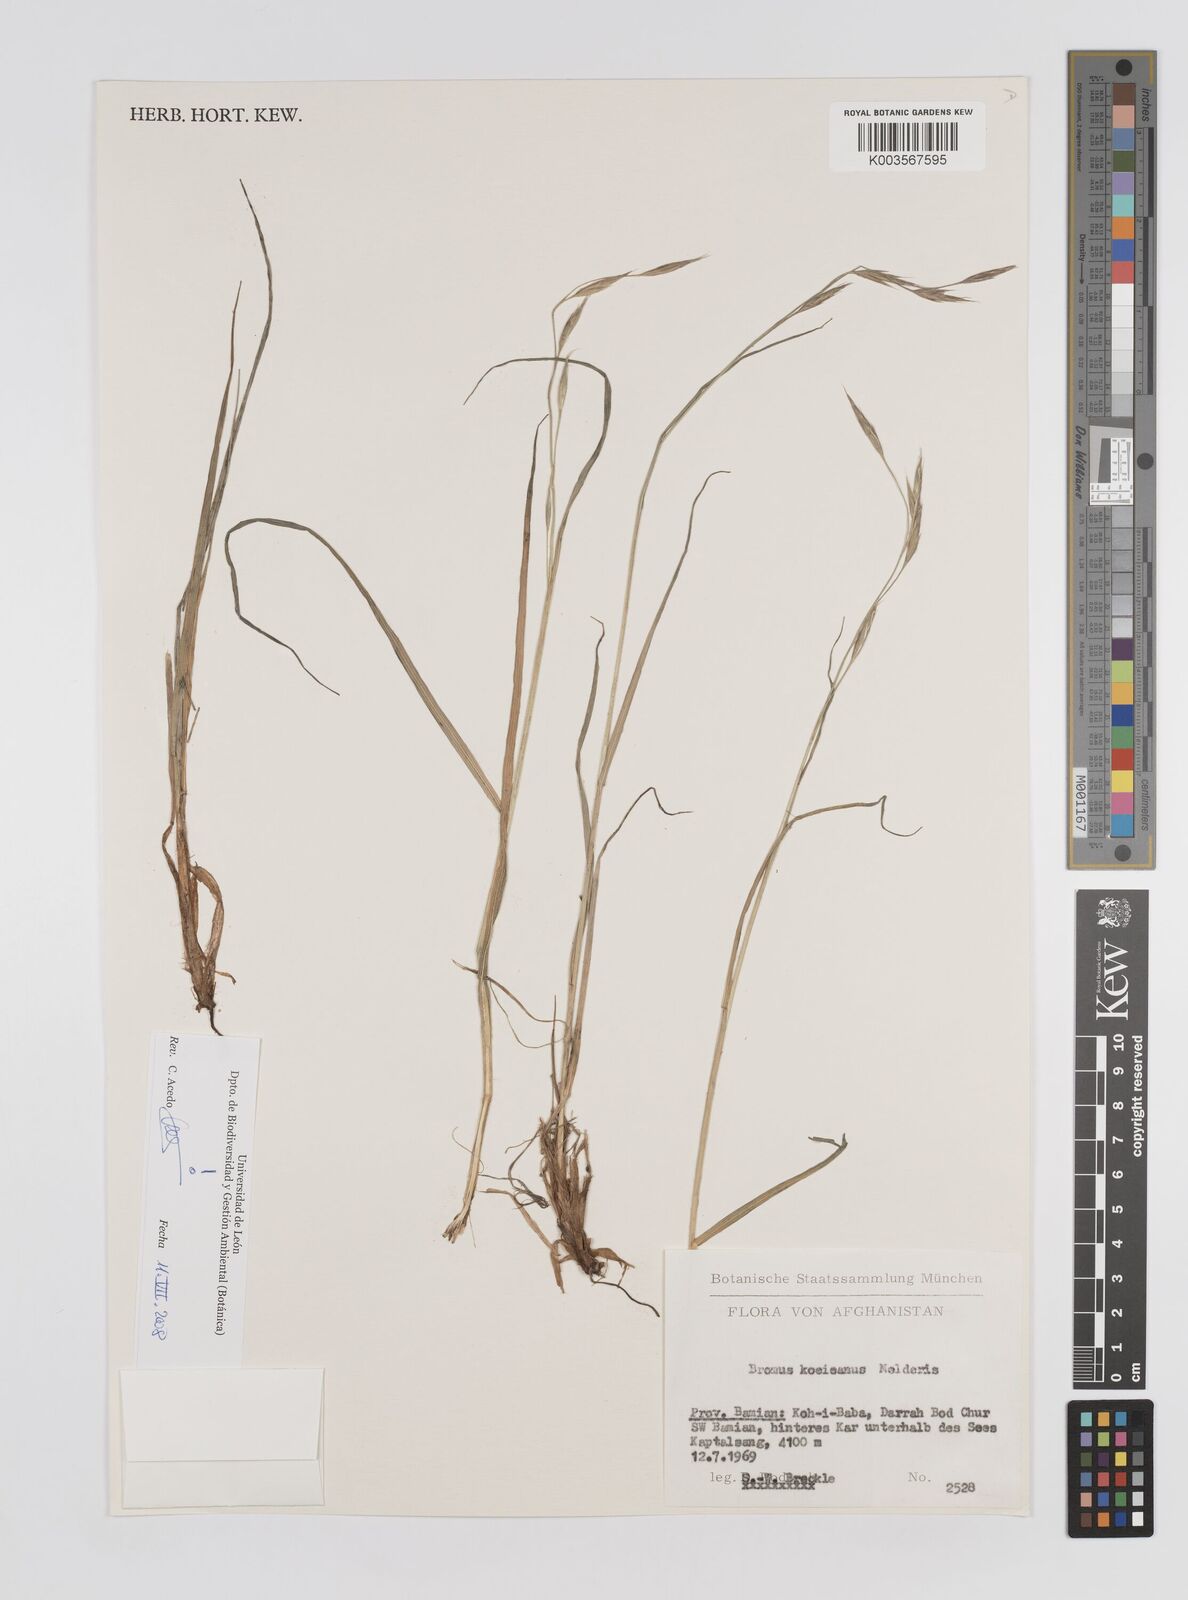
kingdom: Plantae
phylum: Tracheophyta
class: Liliopsida
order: Poales
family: Poaceae
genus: Bromus
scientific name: Bromus koeieanus
